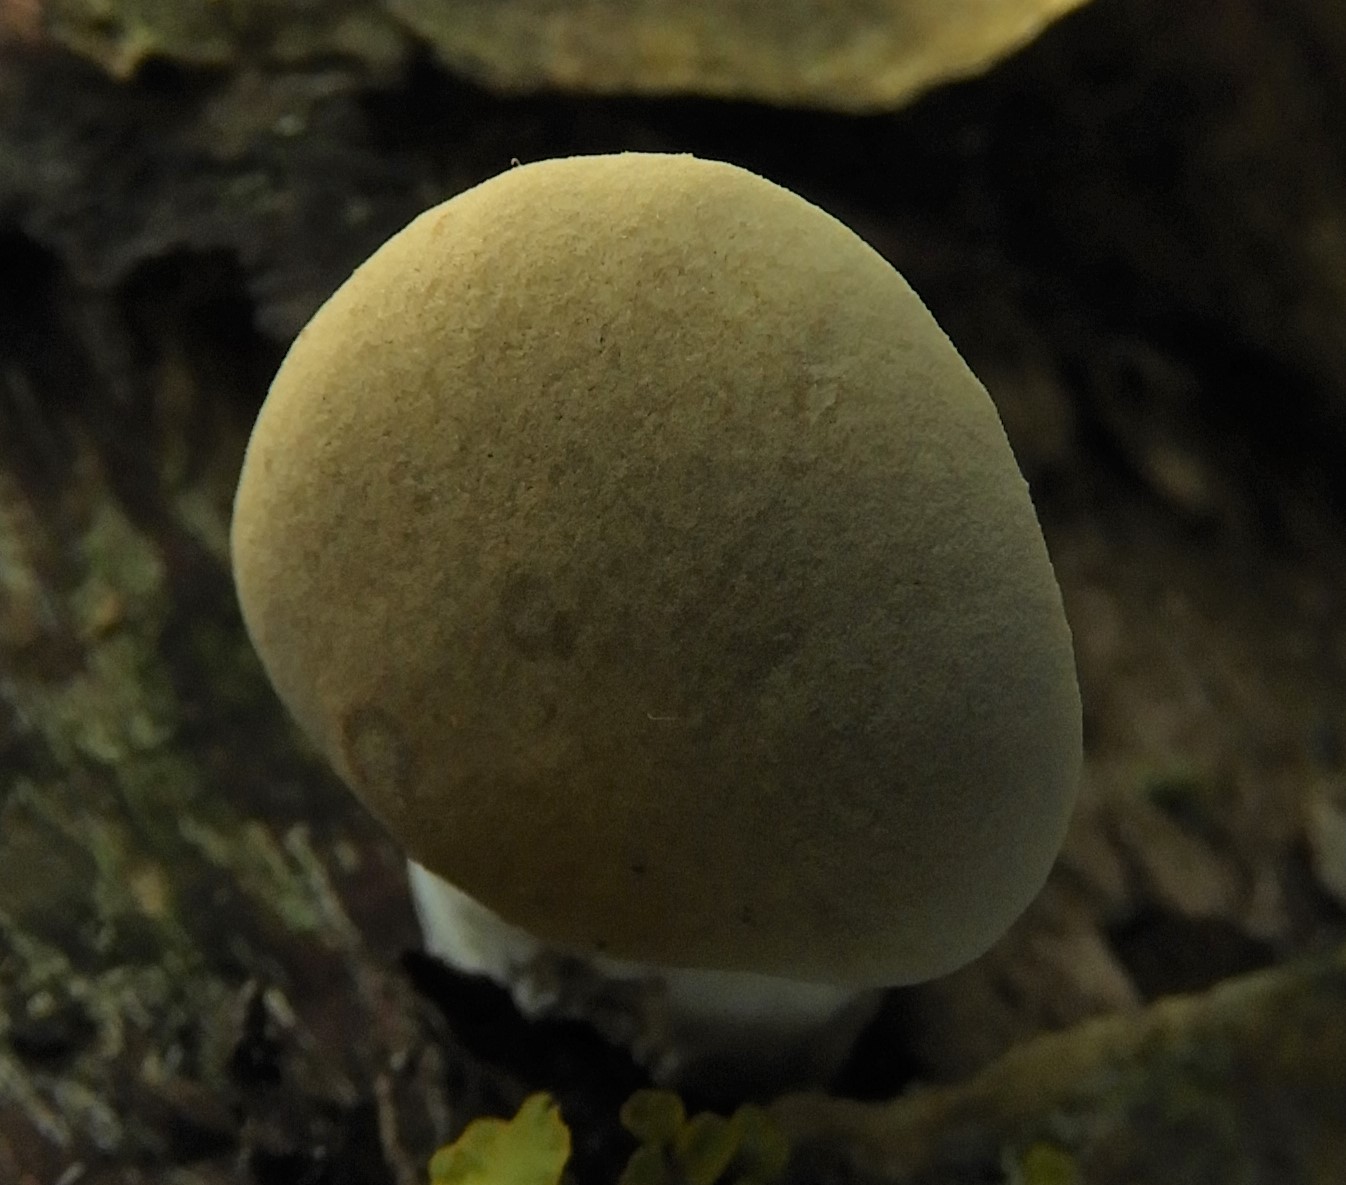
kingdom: Fungi
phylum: Basidiomycota
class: Agaricomycetes
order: Polyporales
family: Polyporaceae
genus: Cerioporus
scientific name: Cerioporus varius
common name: foranderlig stilkporesvamp
